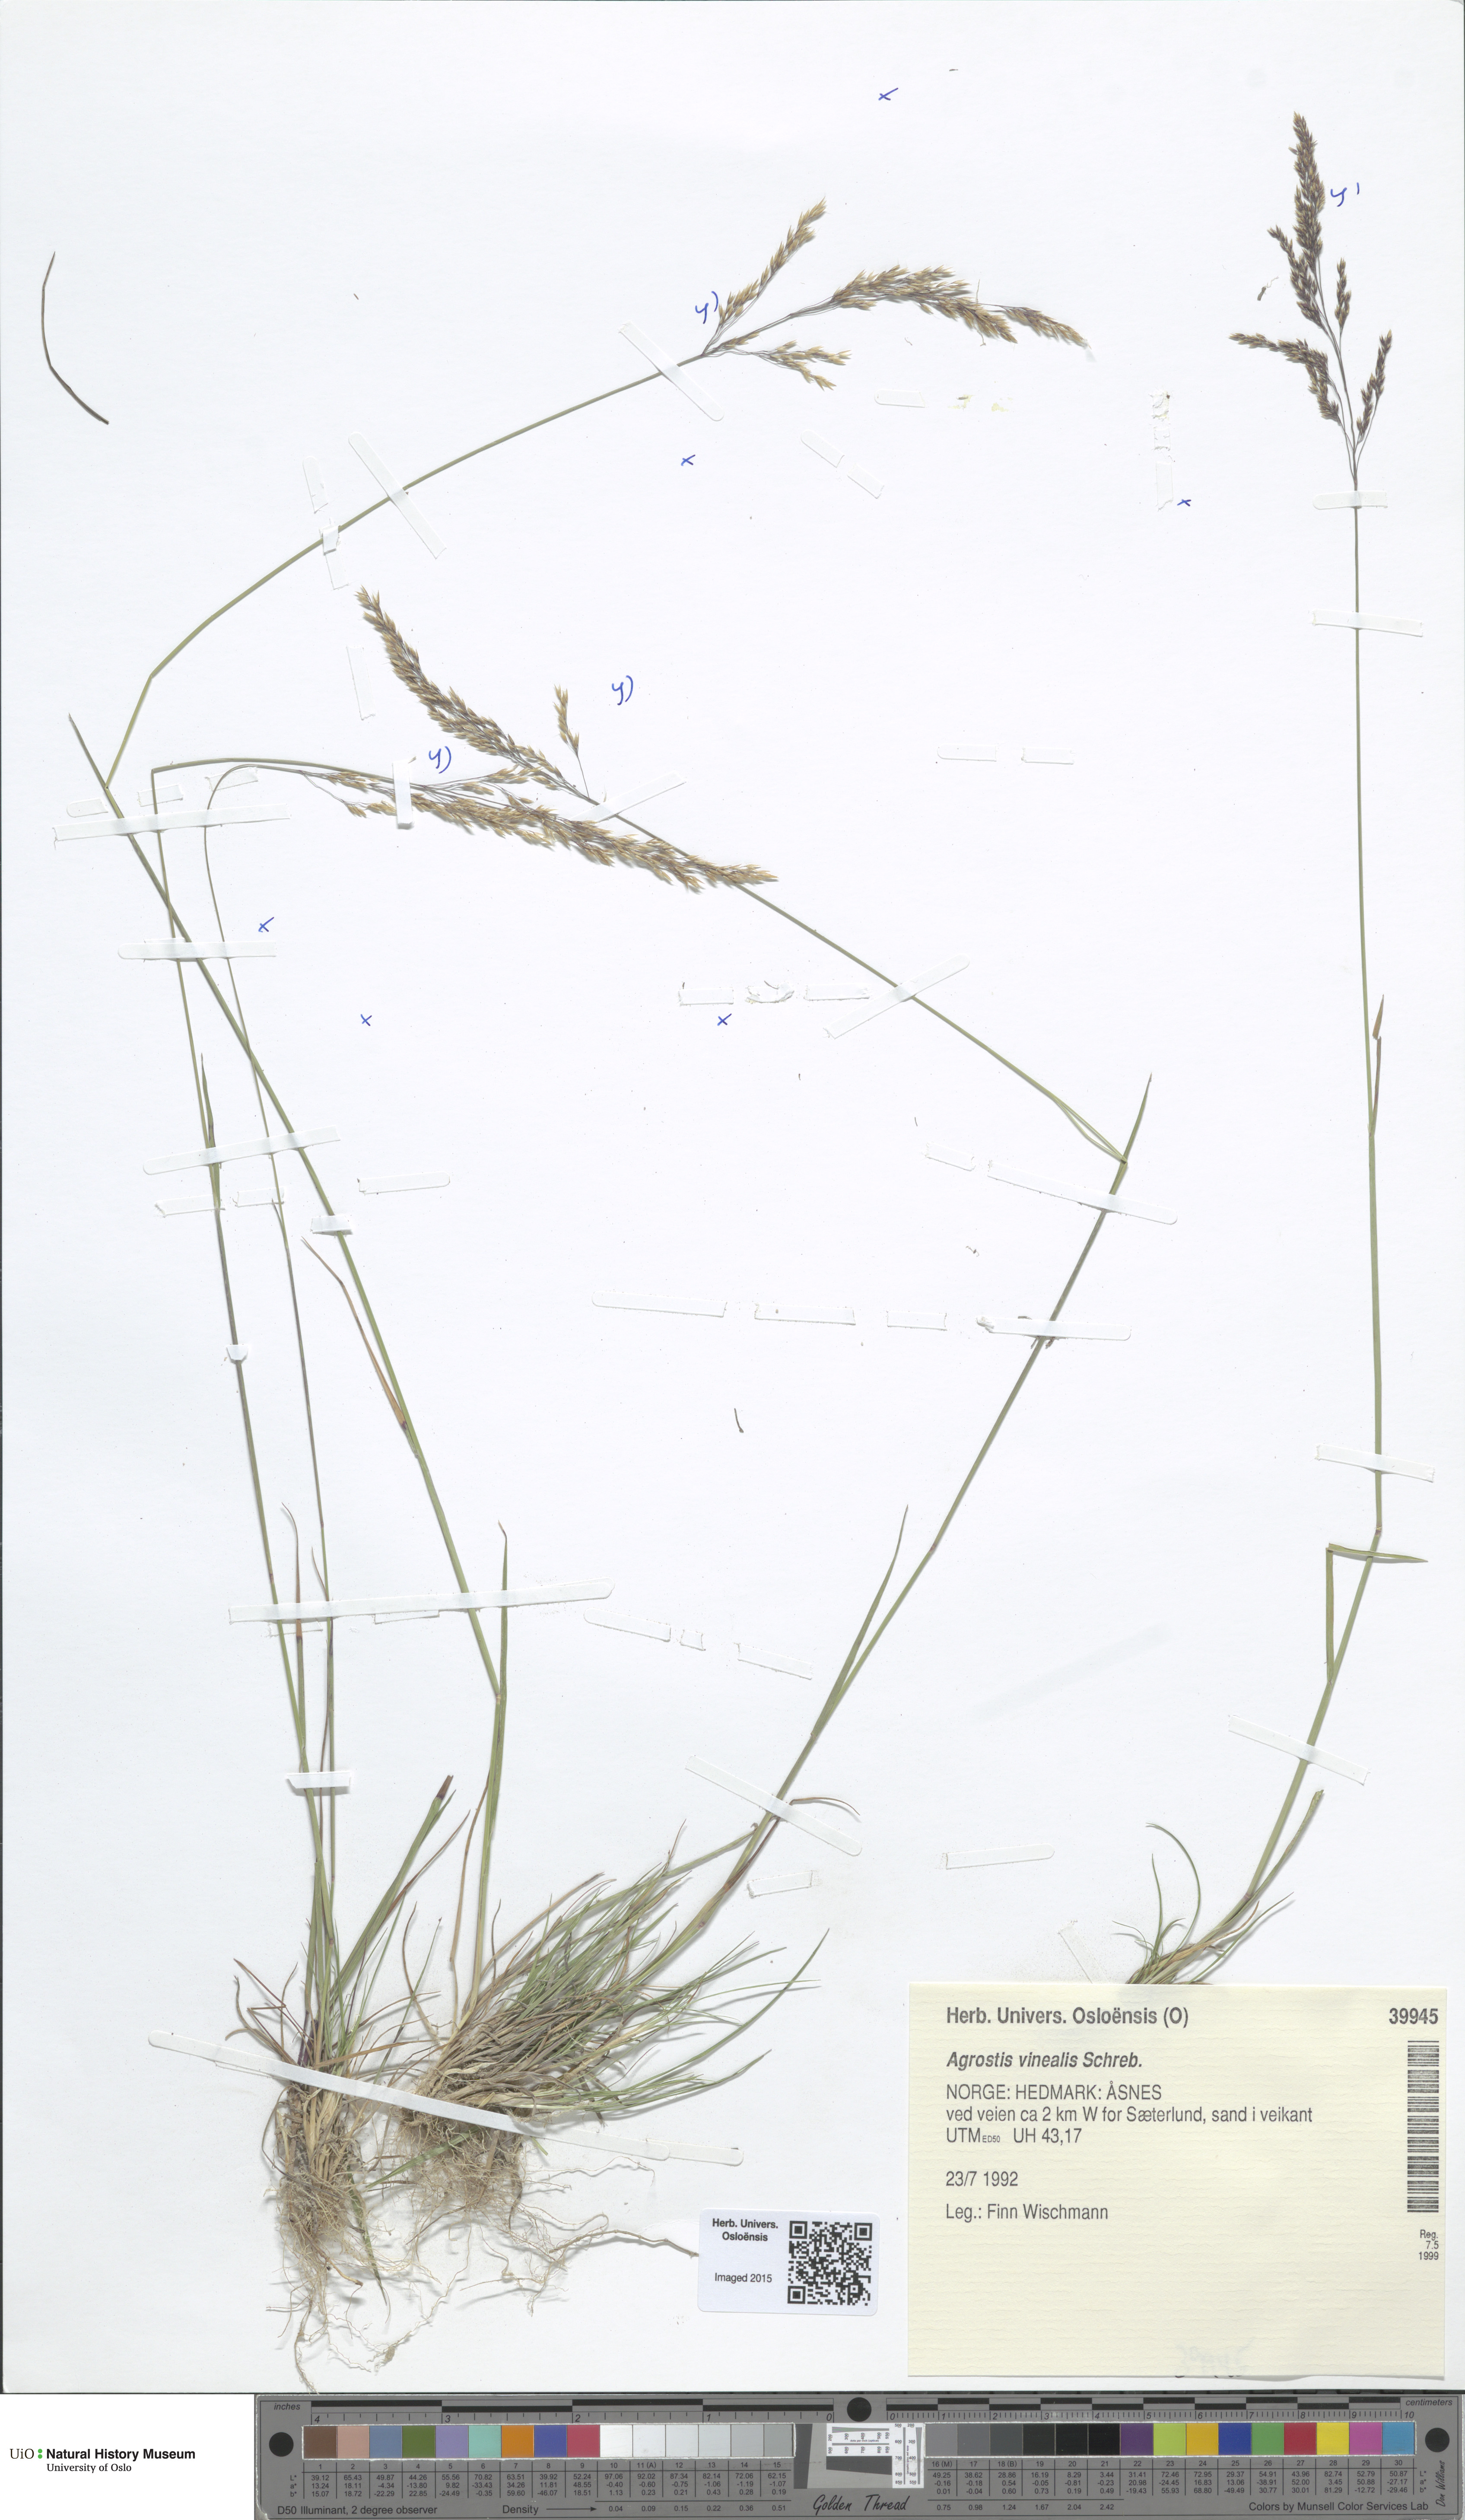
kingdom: Plantae
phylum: Tracheophyta
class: Liliopsida
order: Poales
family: Poaceae
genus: Agrostis
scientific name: Agrostis vinealis
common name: Brown bent
